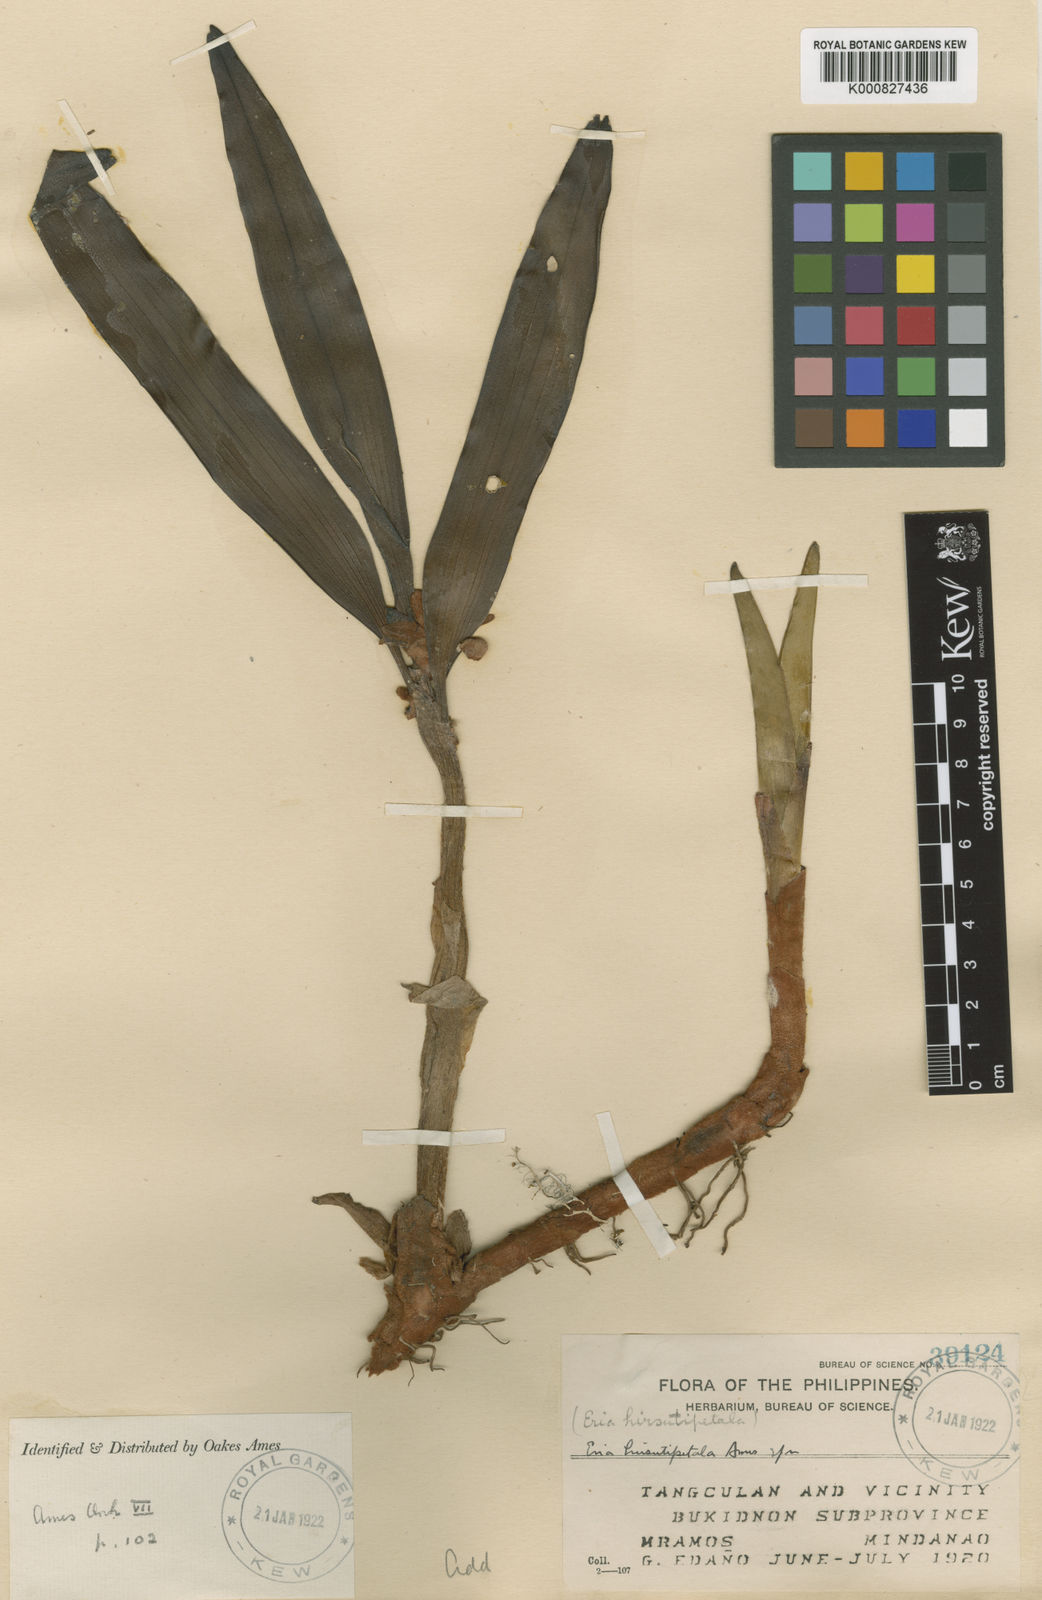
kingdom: Plantae
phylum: Tracheophyta
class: Liliopsida
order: Asparagales
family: Orchidaceae
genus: Strongyleria
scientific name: Strongyleria hirsutipetala
